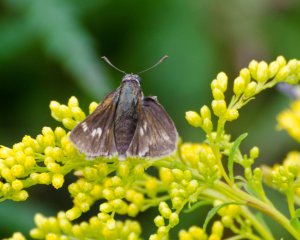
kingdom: Animalia
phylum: Arthropoda
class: Insecta
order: Lepidoptera
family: Hesperiidae
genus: Vernia
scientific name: Vernia verna
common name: Little Glassywing
